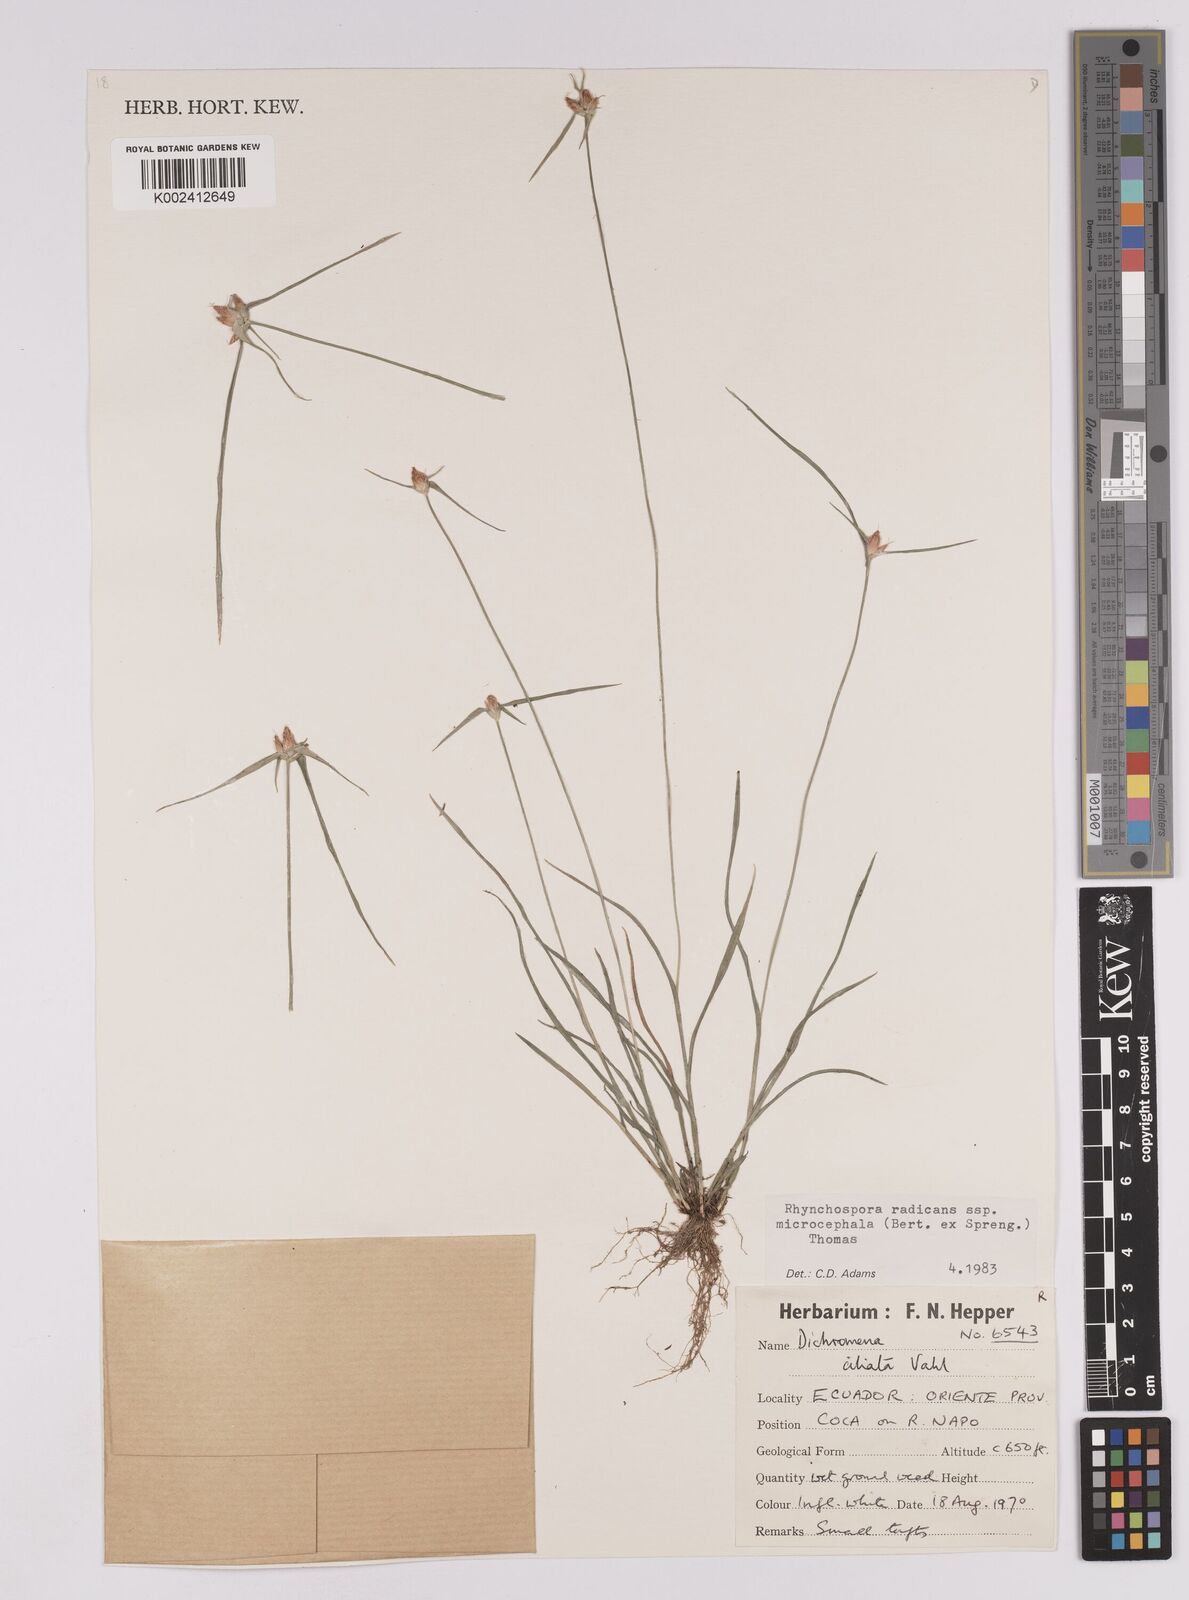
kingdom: Plantae
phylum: Tracheophyta
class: Liliopsida
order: Poales
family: Cyperaceae
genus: Rhynchospora
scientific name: Rhynchospora radicans
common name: Tropical whitetop
